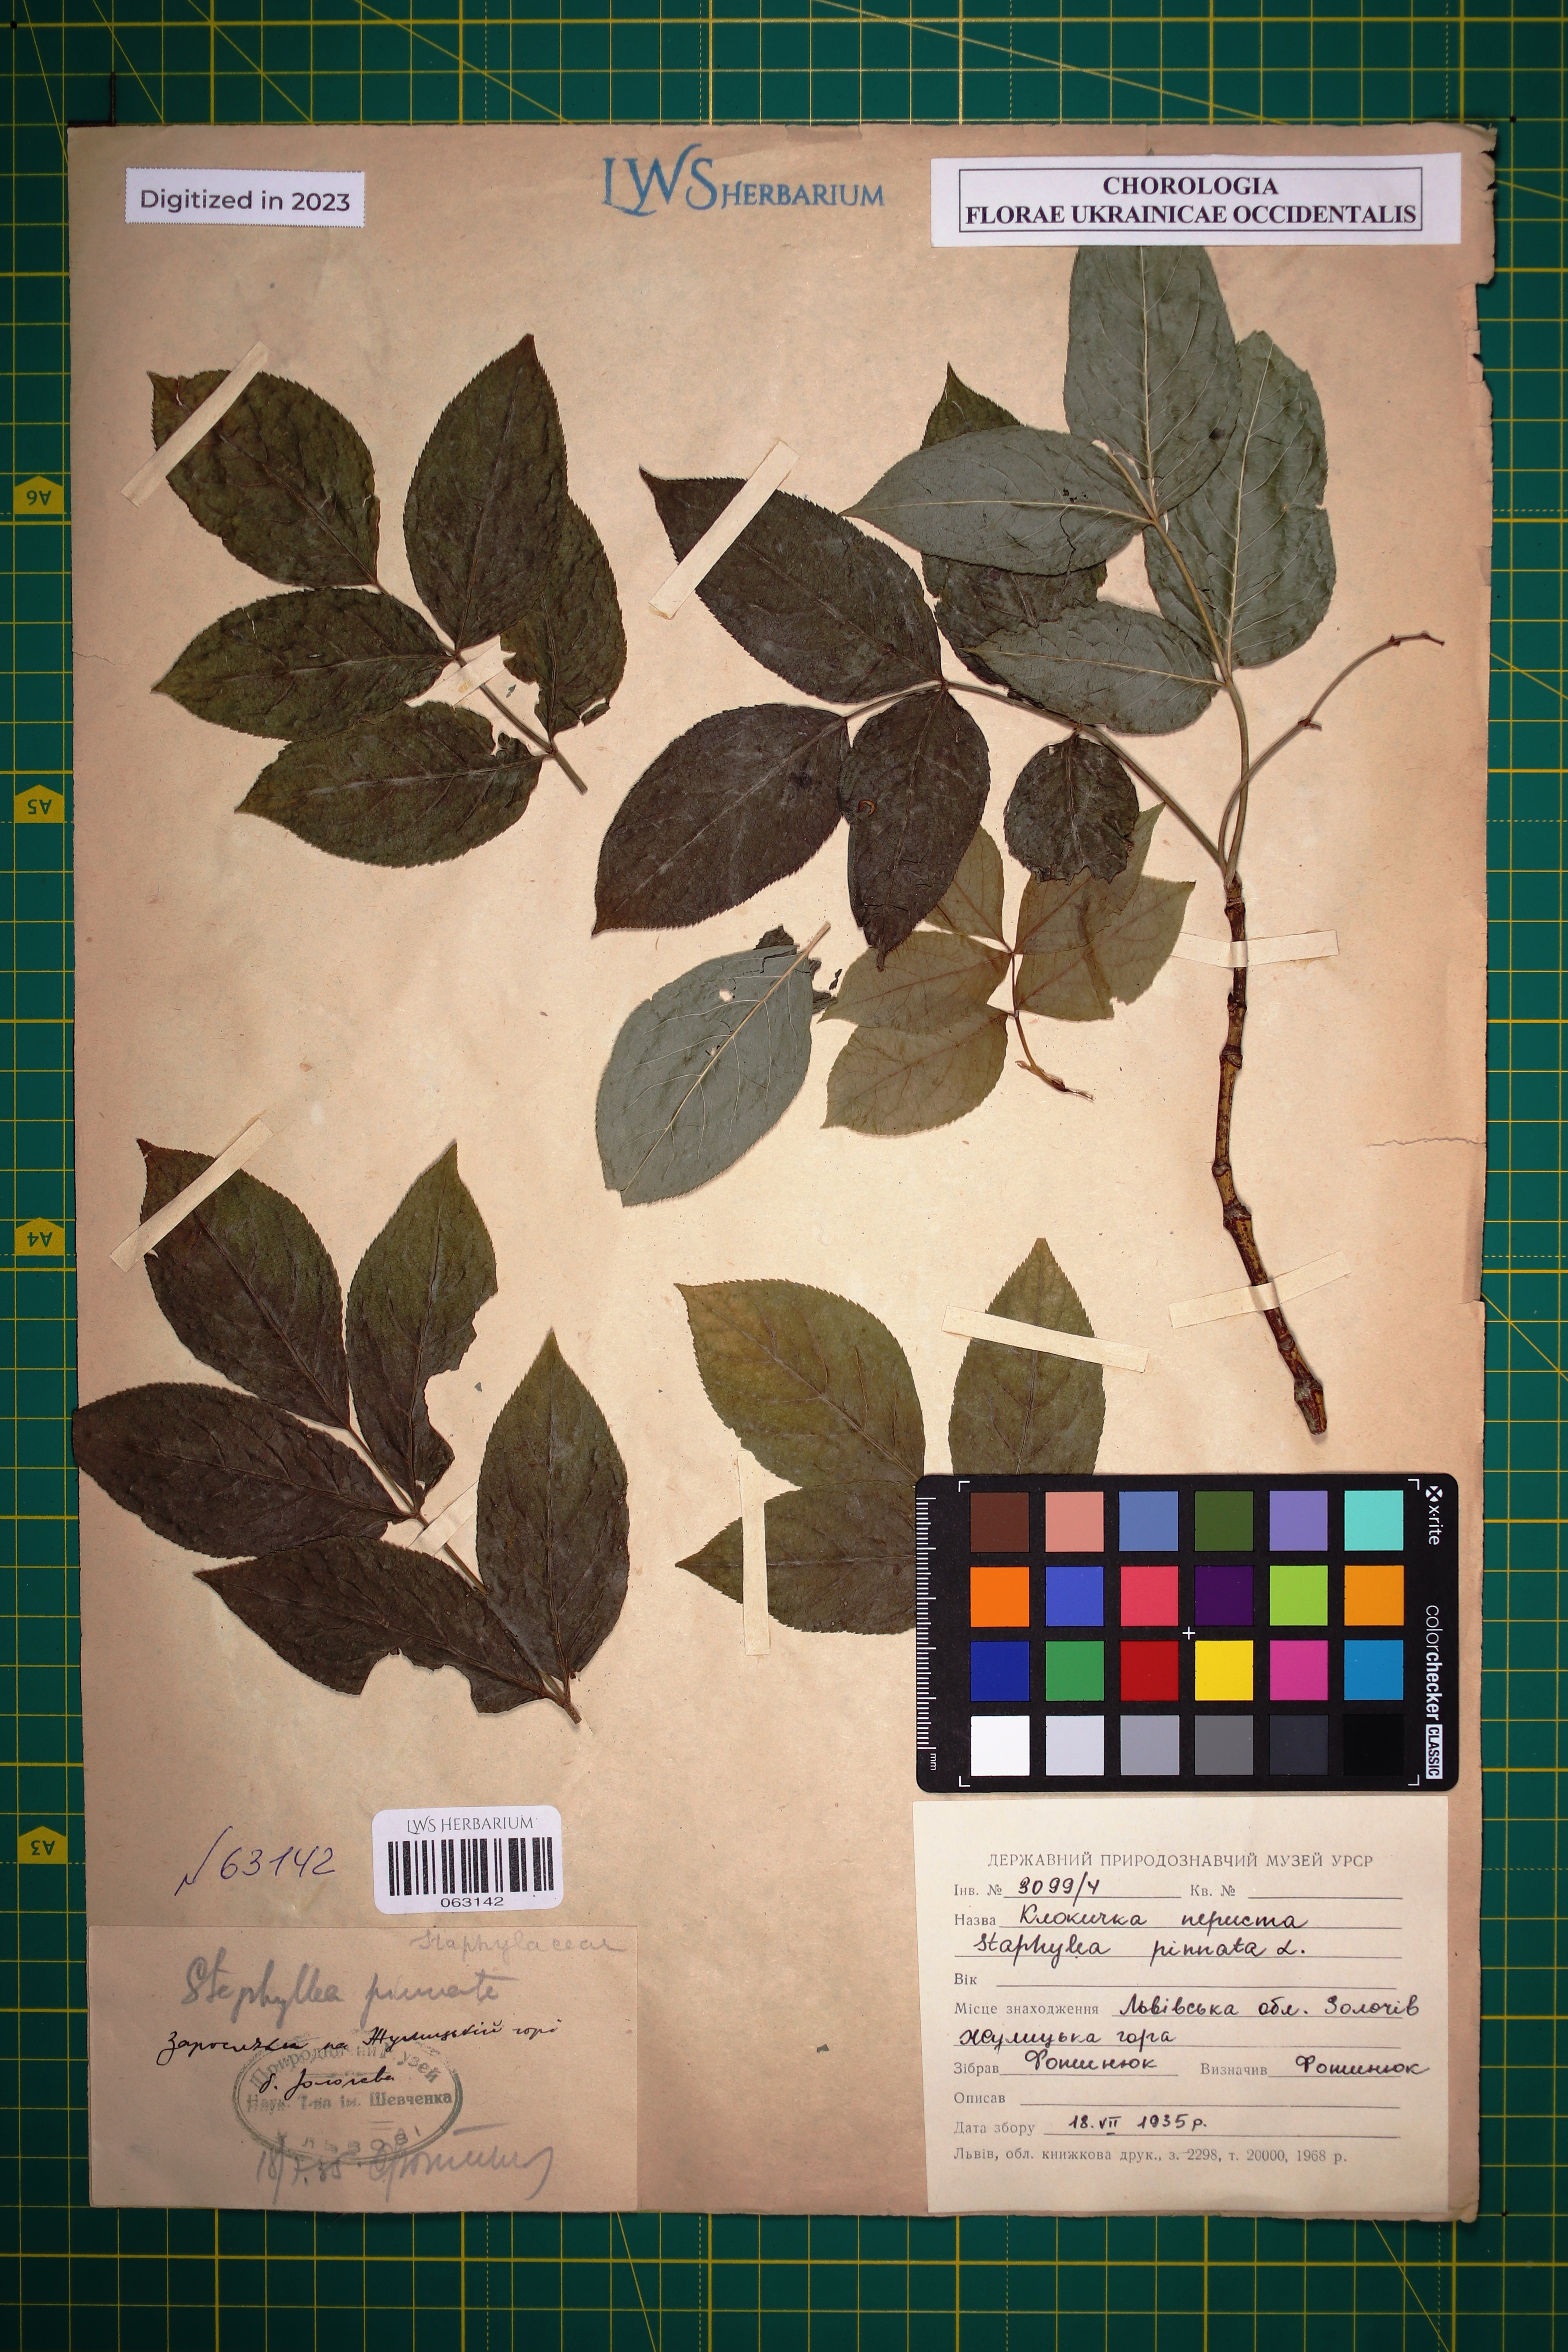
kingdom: Plantae
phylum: Tracheophyta
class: Magnoliopsida
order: Crossosomatales
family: Staphyleaceae
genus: Staphylea
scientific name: Staphylea pinnata
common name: Bladdernut
